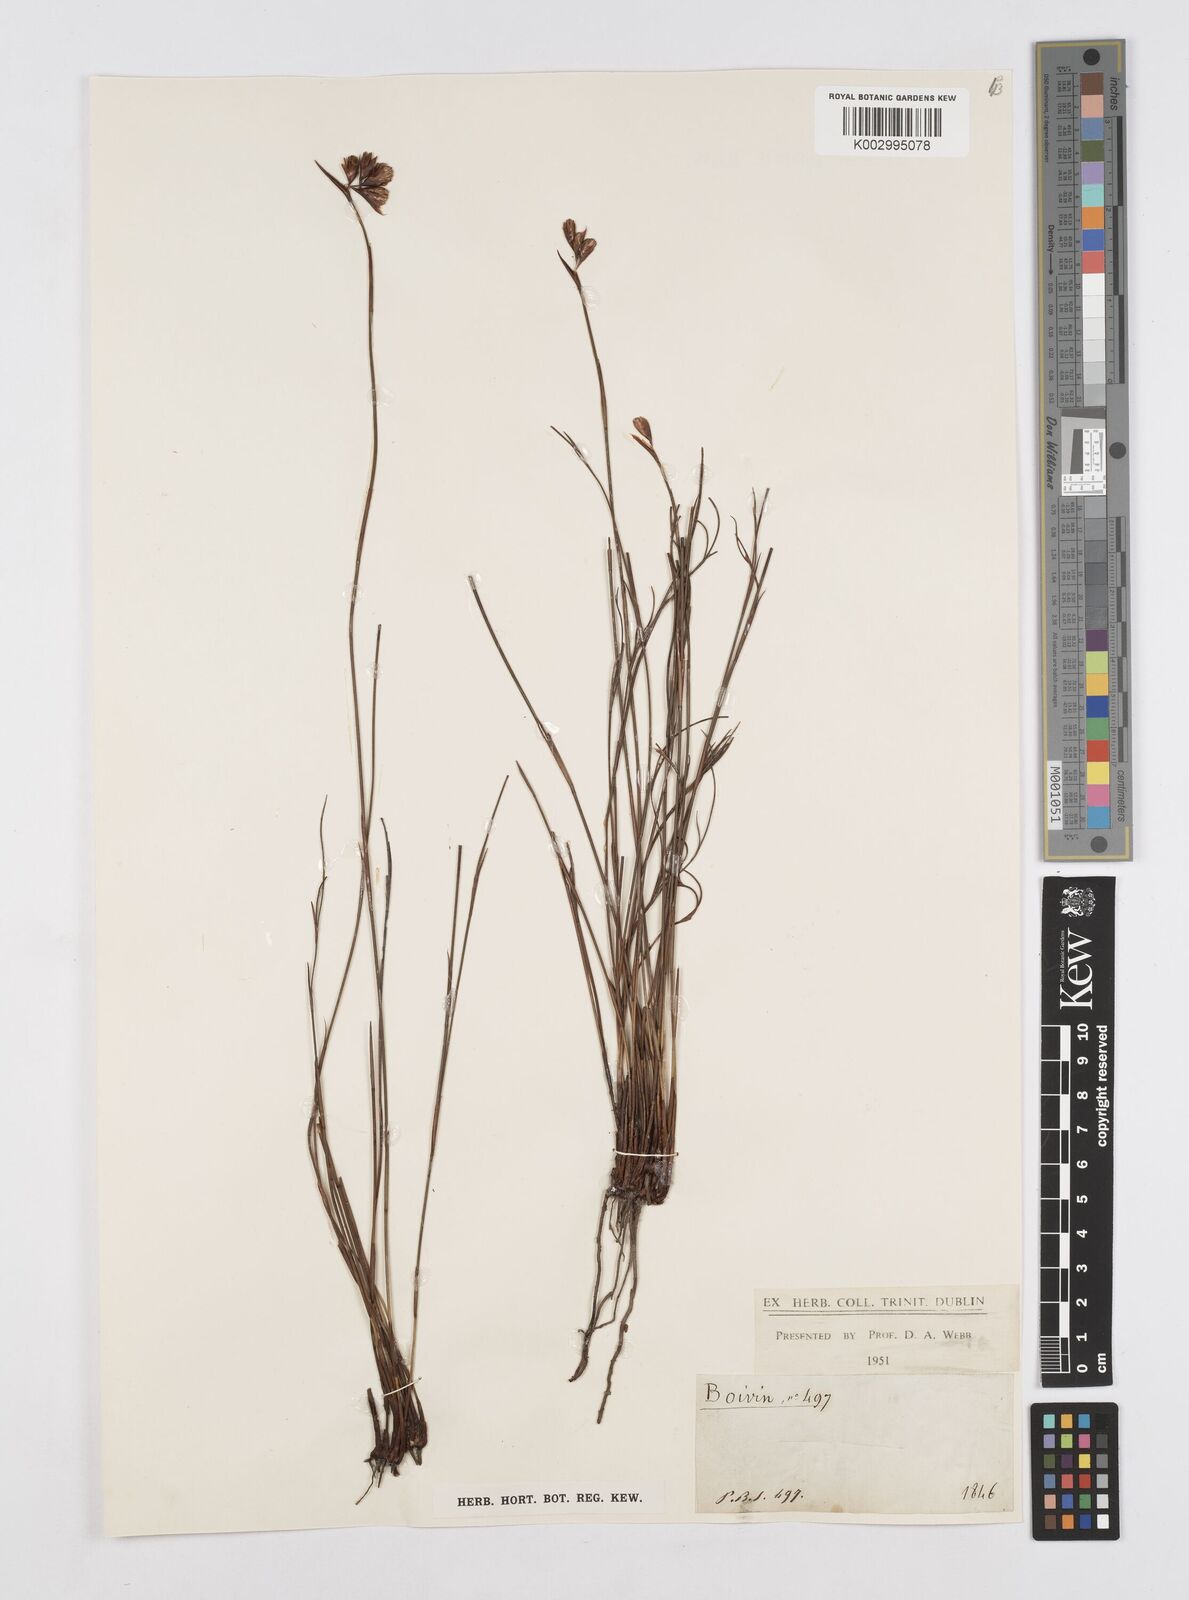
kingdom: Plantae
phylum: Tracheophyta
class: Liliopsida
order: Poales
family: Restionaceae
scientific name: Restionaceae
